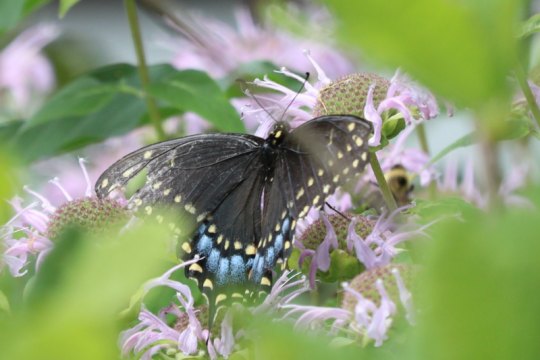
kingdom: Animalia
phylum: Arthropoda
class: Insecta
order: Lepidoptera
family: Papilionidae
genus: Papilio
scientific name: Papilio polyxenes
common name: Black Swallowtail
